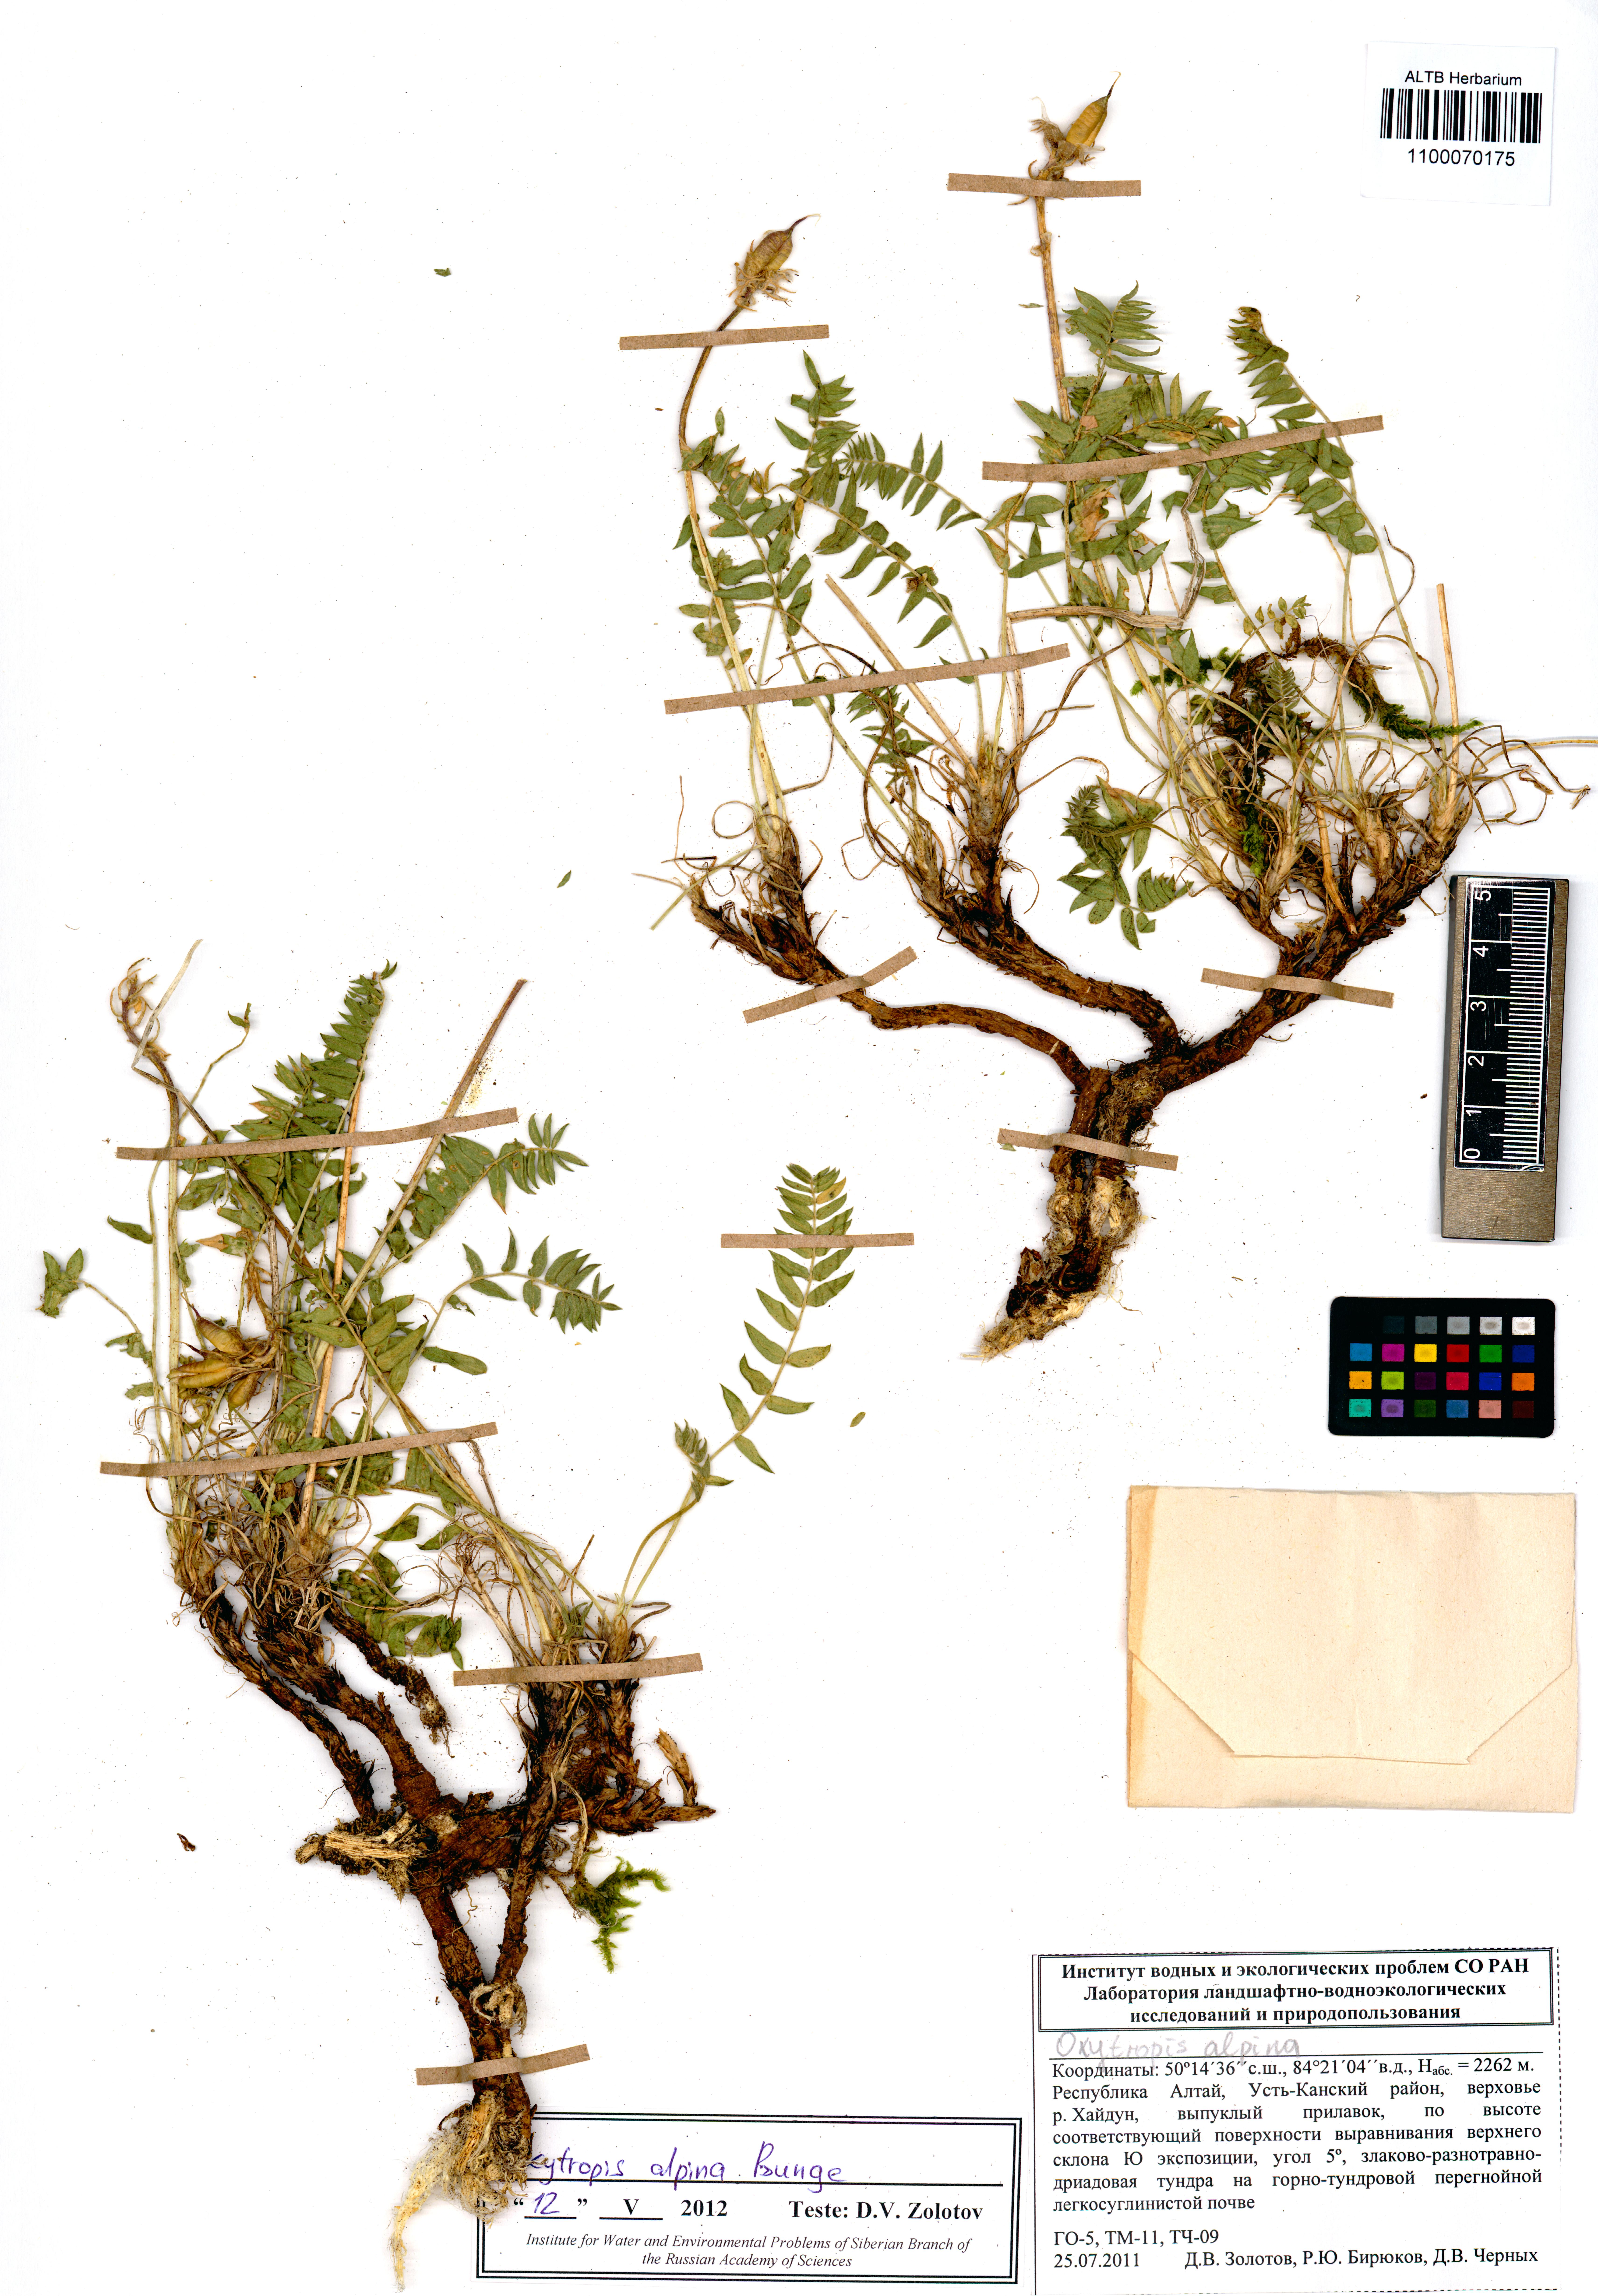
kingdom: Plantae
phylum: Tracheophyta
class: Magnoliopsida
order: Fabales
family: Fabaceae
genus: Oxytropis
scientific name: Oxytropis alpina
